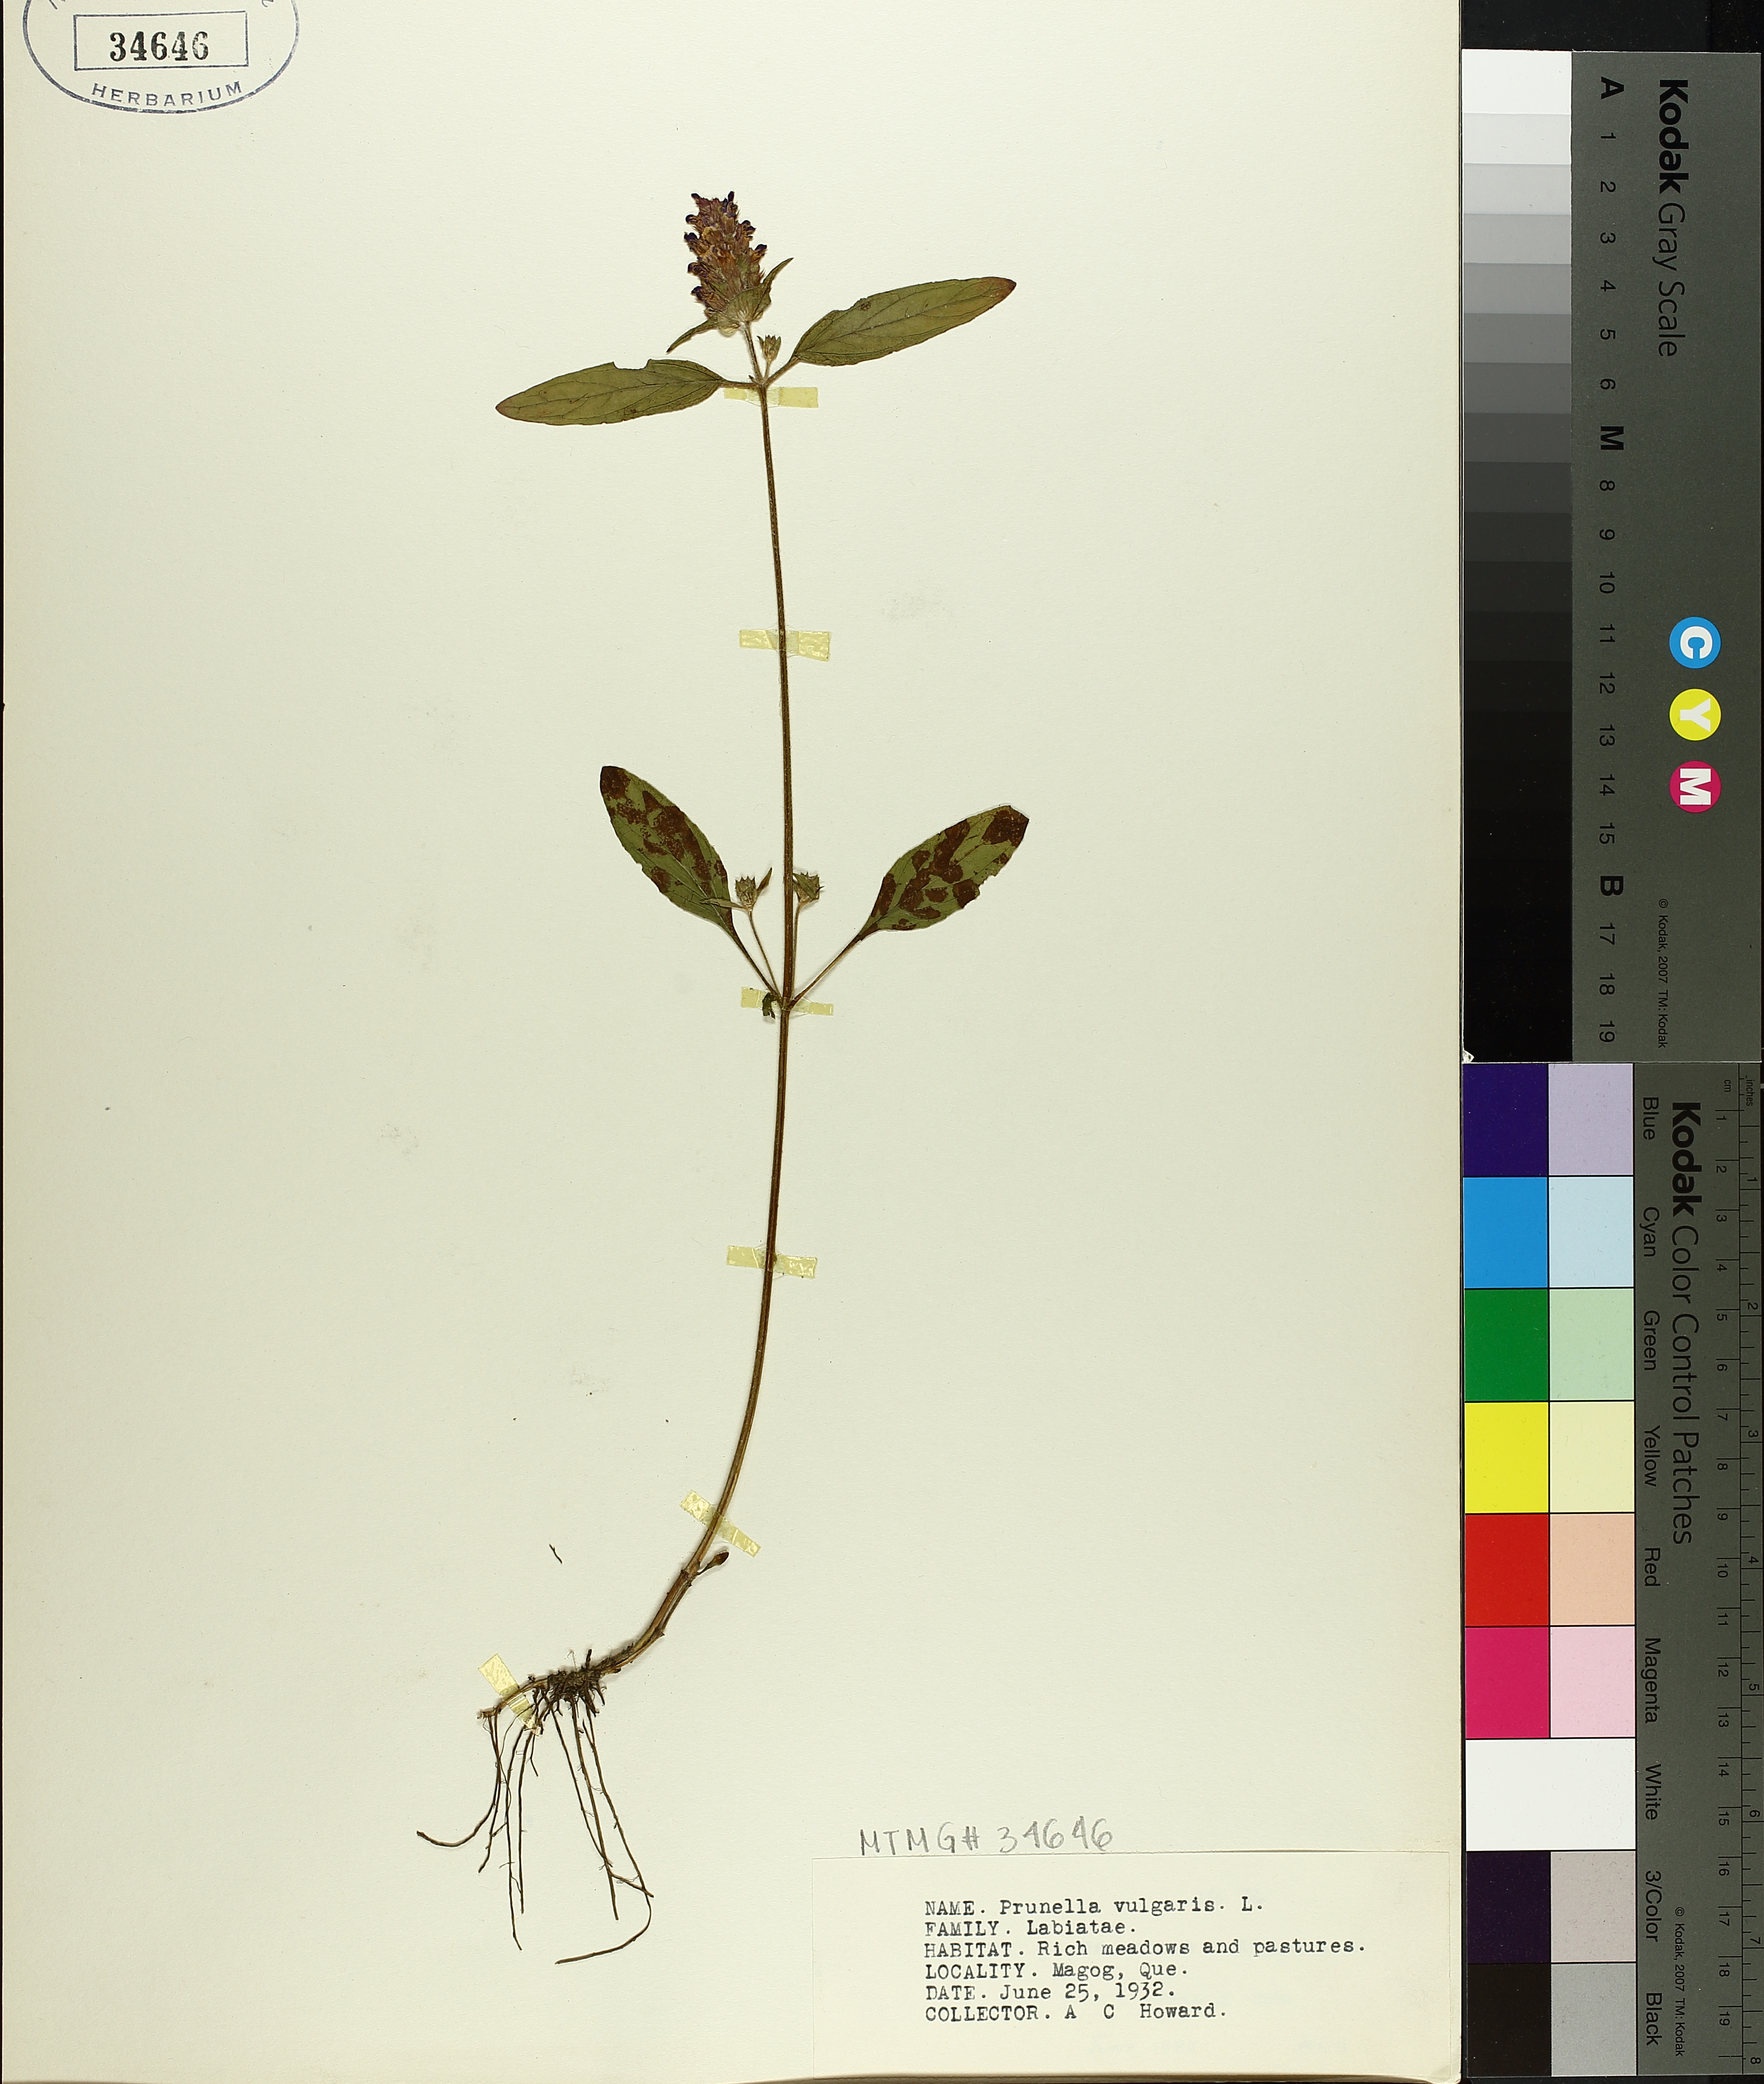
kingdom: Plantae
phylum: Tracheophyta
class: Magnoliopsida
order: Lamiales
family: Lamiaceae
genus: Prunella
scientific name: Prunella vulgaris
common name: Heal-all
